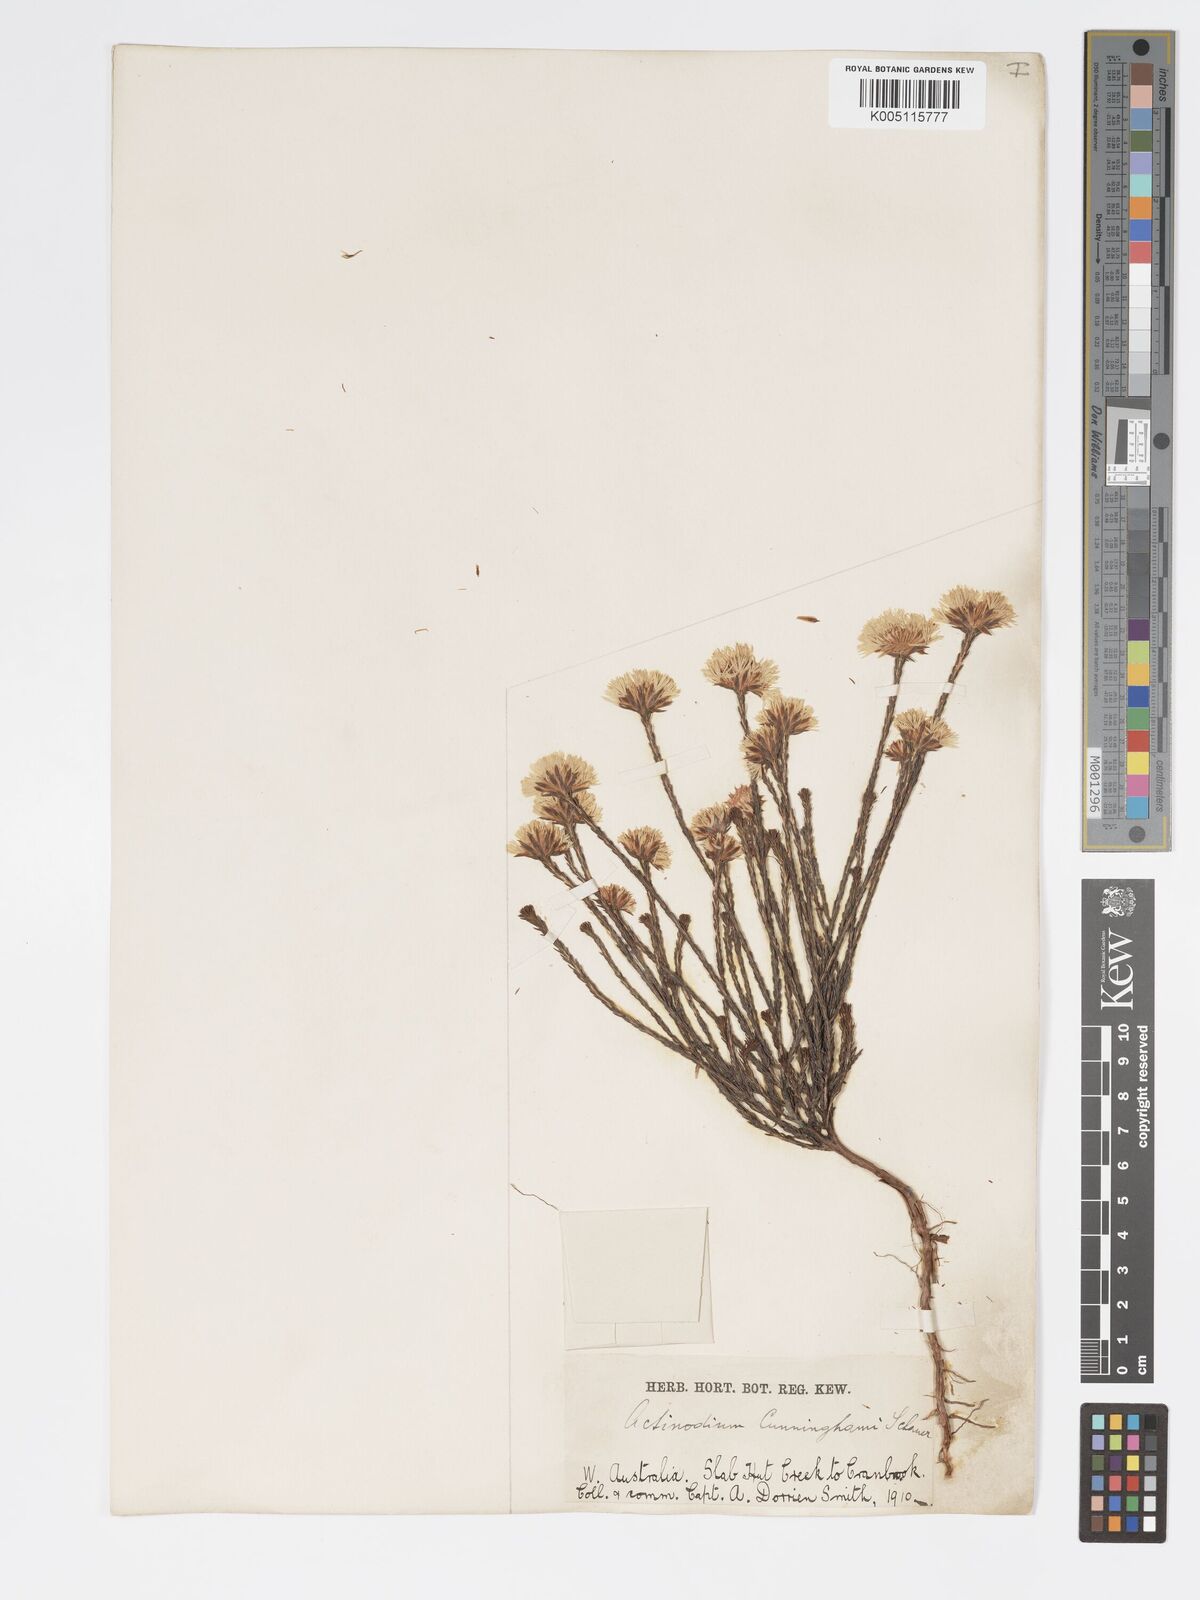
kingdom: Plantae
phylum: Tracheophyta
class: Magnoliopsida
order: Myrtales
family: Myrtaceae
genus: Actinodium
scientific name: Actinodium cunninghamii
